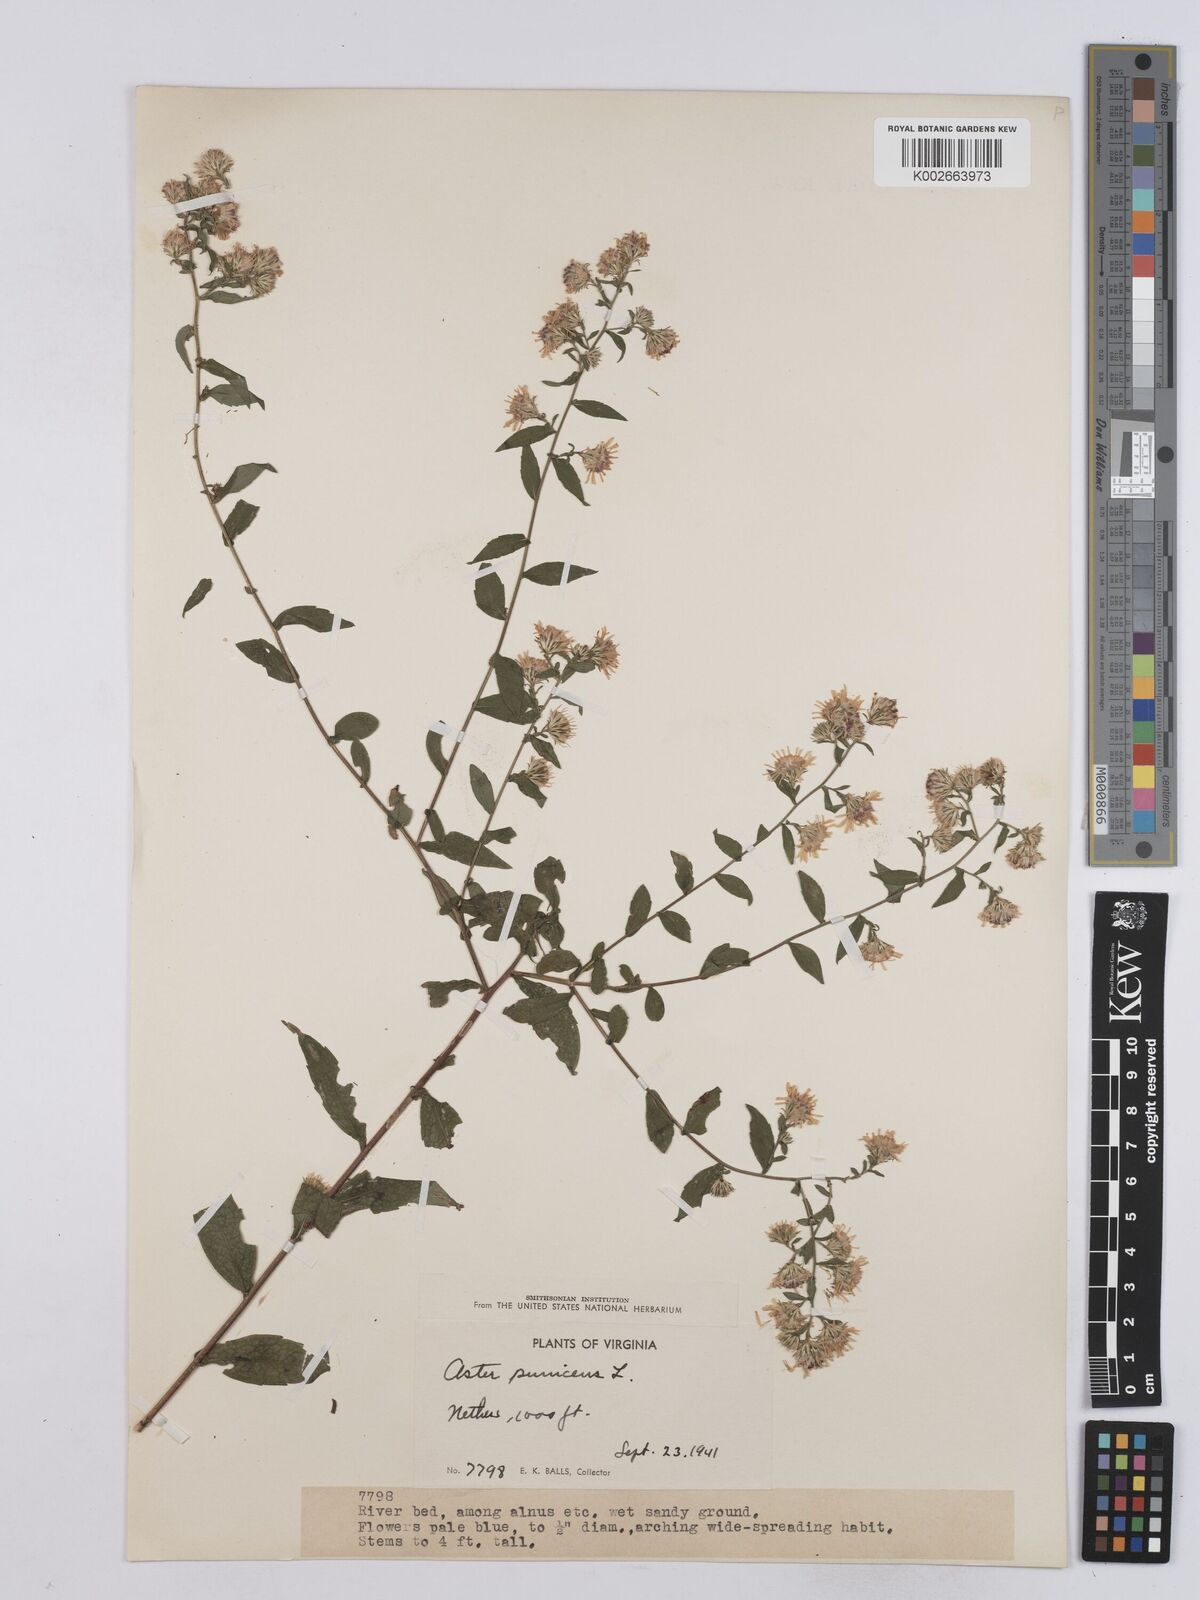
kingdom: Plantae
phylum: Tracheophyta
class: Magnoliopsida
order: Asterales
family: Asteraceae
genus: Symphyotrichum
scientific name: Symphyotrichum puniceum
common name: Bog aster
